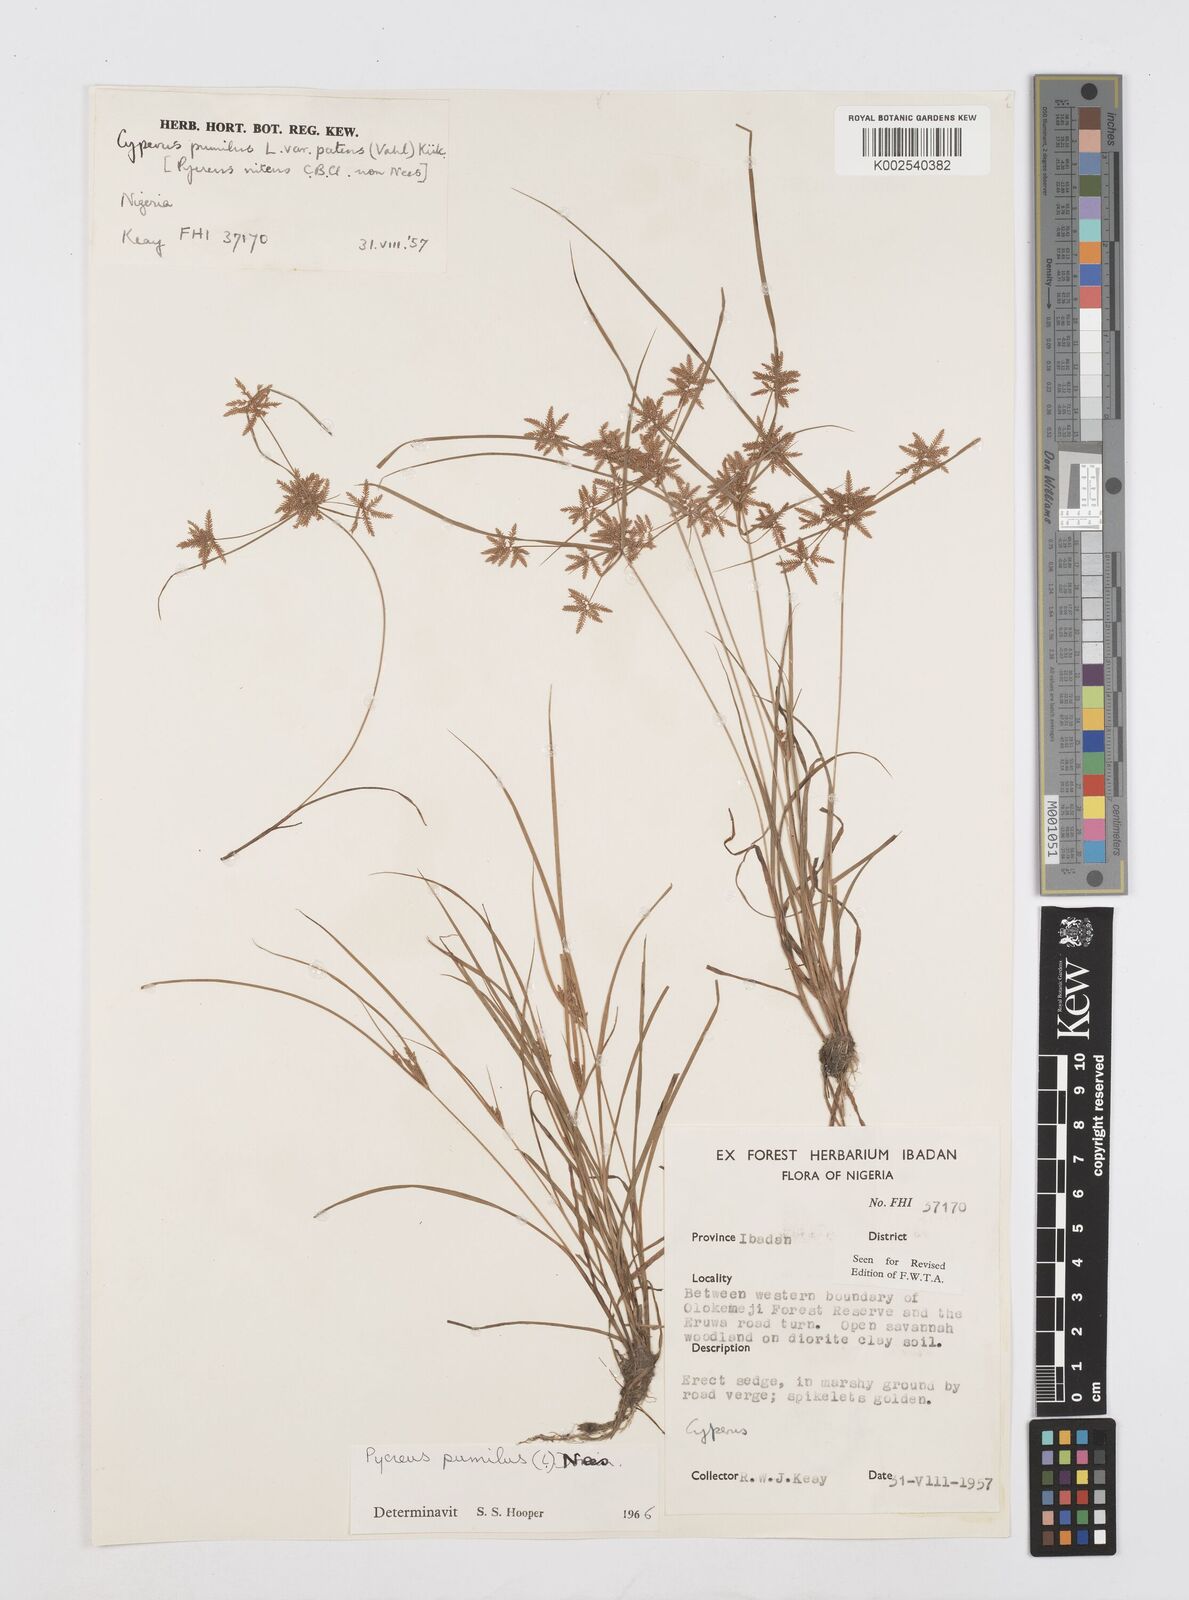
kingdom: Plantae
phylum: Tracheophyta
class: Liliopsida
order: Poales
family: Cyperaceae
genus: Cyperus
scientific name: Cyperus pumilus
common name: Low flatsedge
